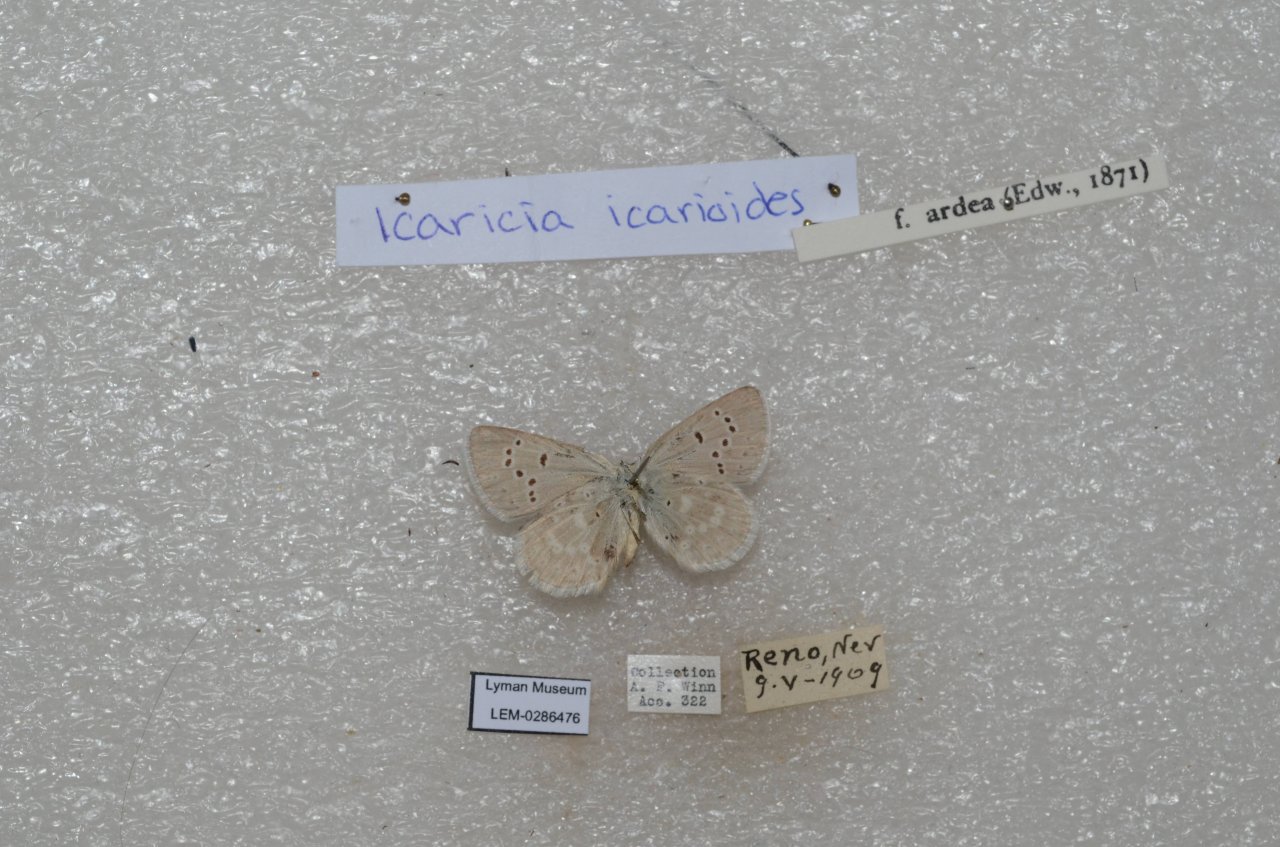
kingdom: Animalia
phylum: Arthropoda
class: Insecta
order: Lepidoptera
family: Lycaenidae
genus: Icaricia
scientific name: Icaricia icarioides
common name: Boisduval's Blue
